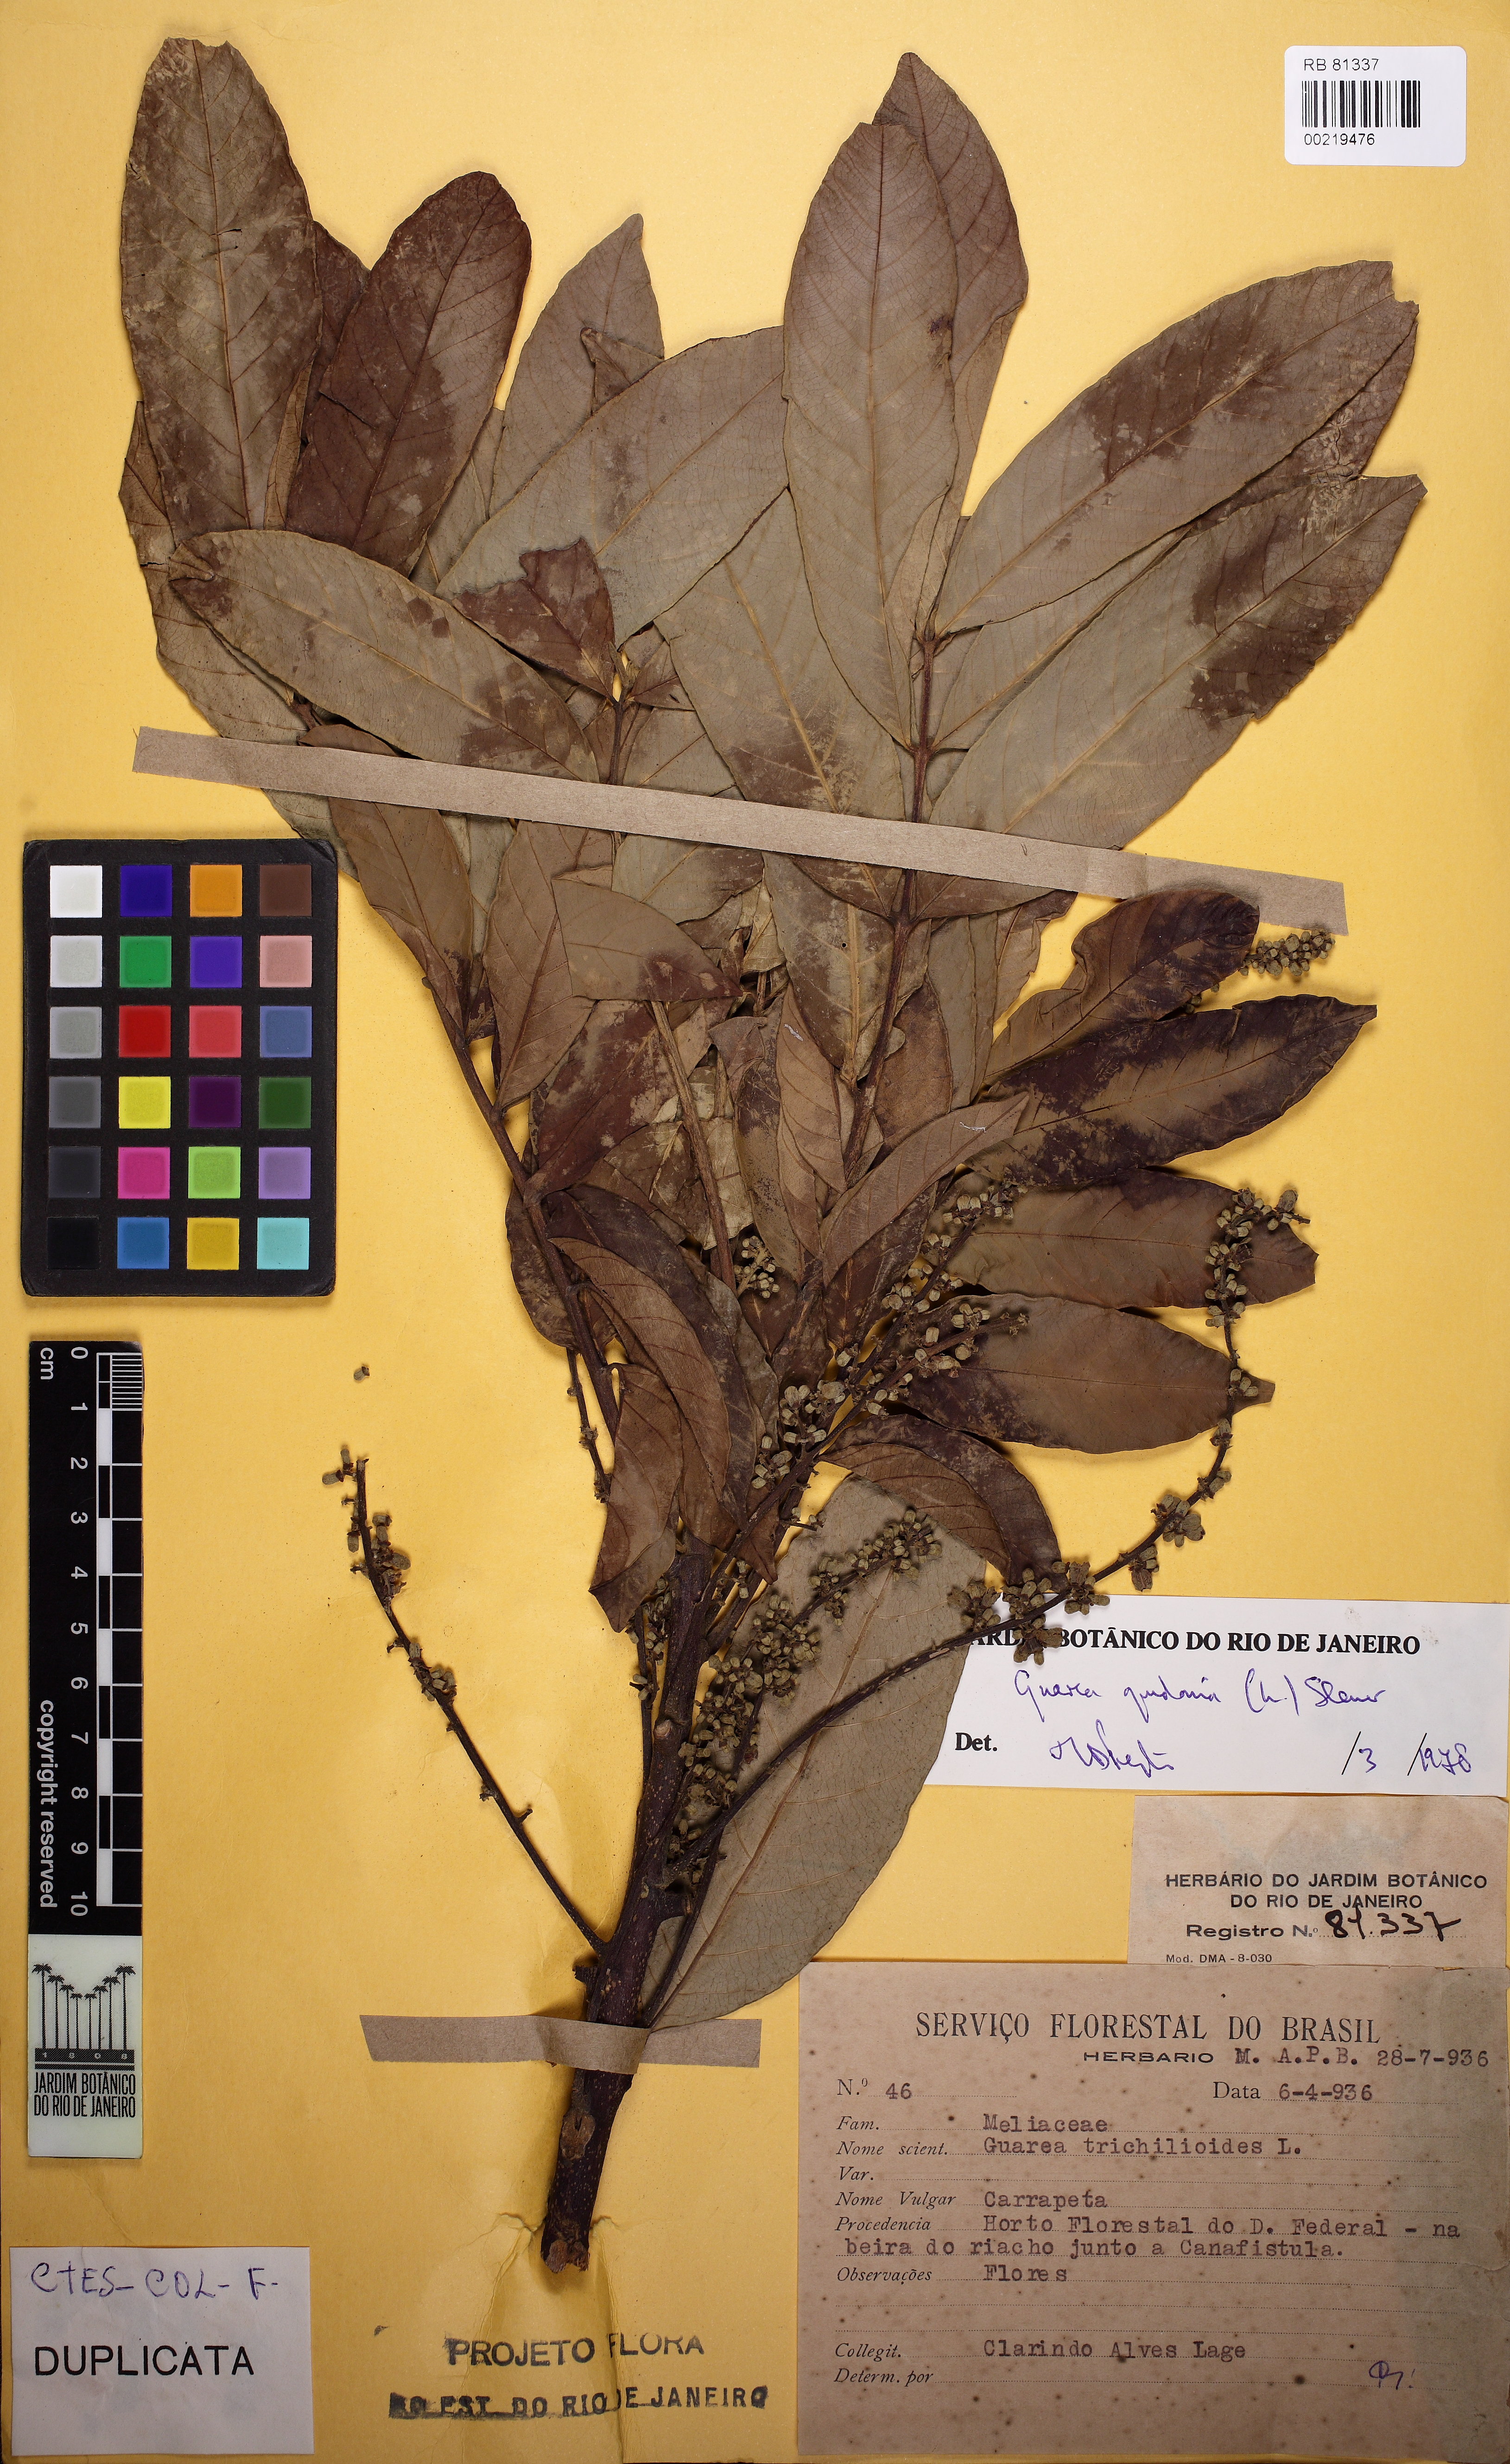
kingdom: Plantae
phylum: Tracheophyta
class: Magnoliopsida
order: Sapindales
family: Meliaceae
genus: Guarea
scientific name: Guarea guidonia
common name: American muskwood
